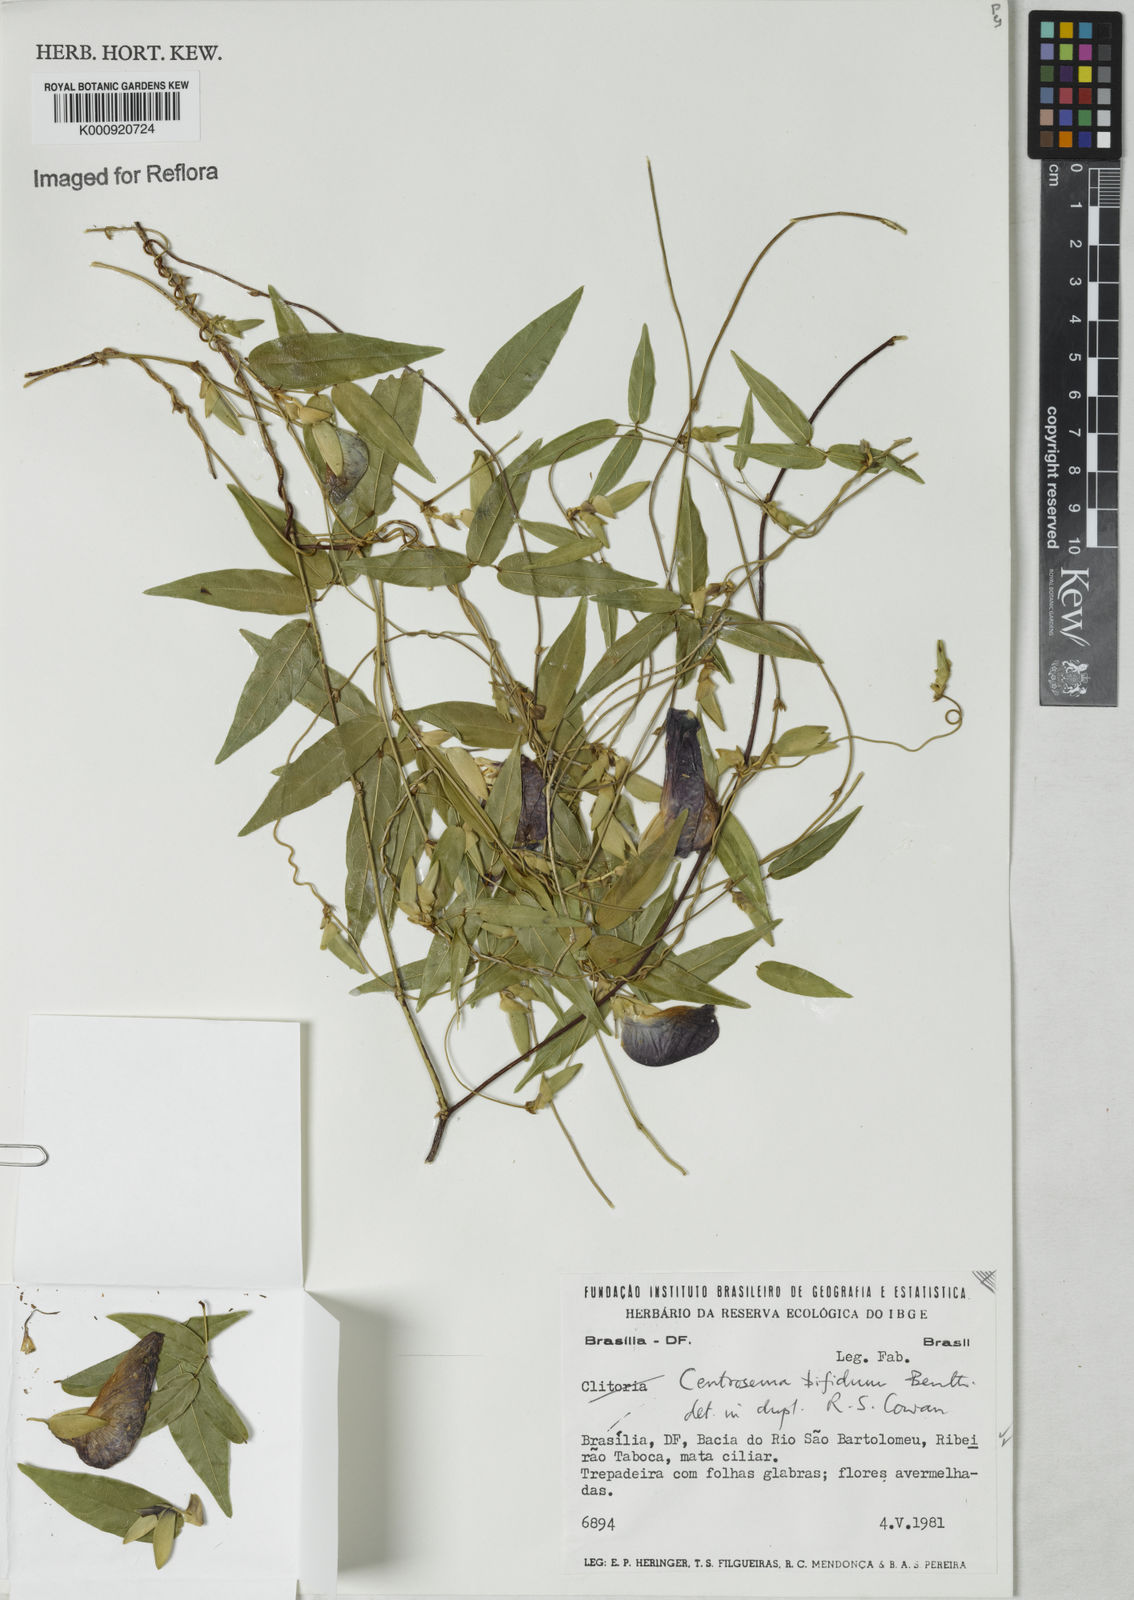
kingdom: Plantae
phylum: Tracheophyta
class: Magnoliopsida
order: Fabales
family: Fabaceae
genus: Centrosema
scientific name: Centrosema bifidum
